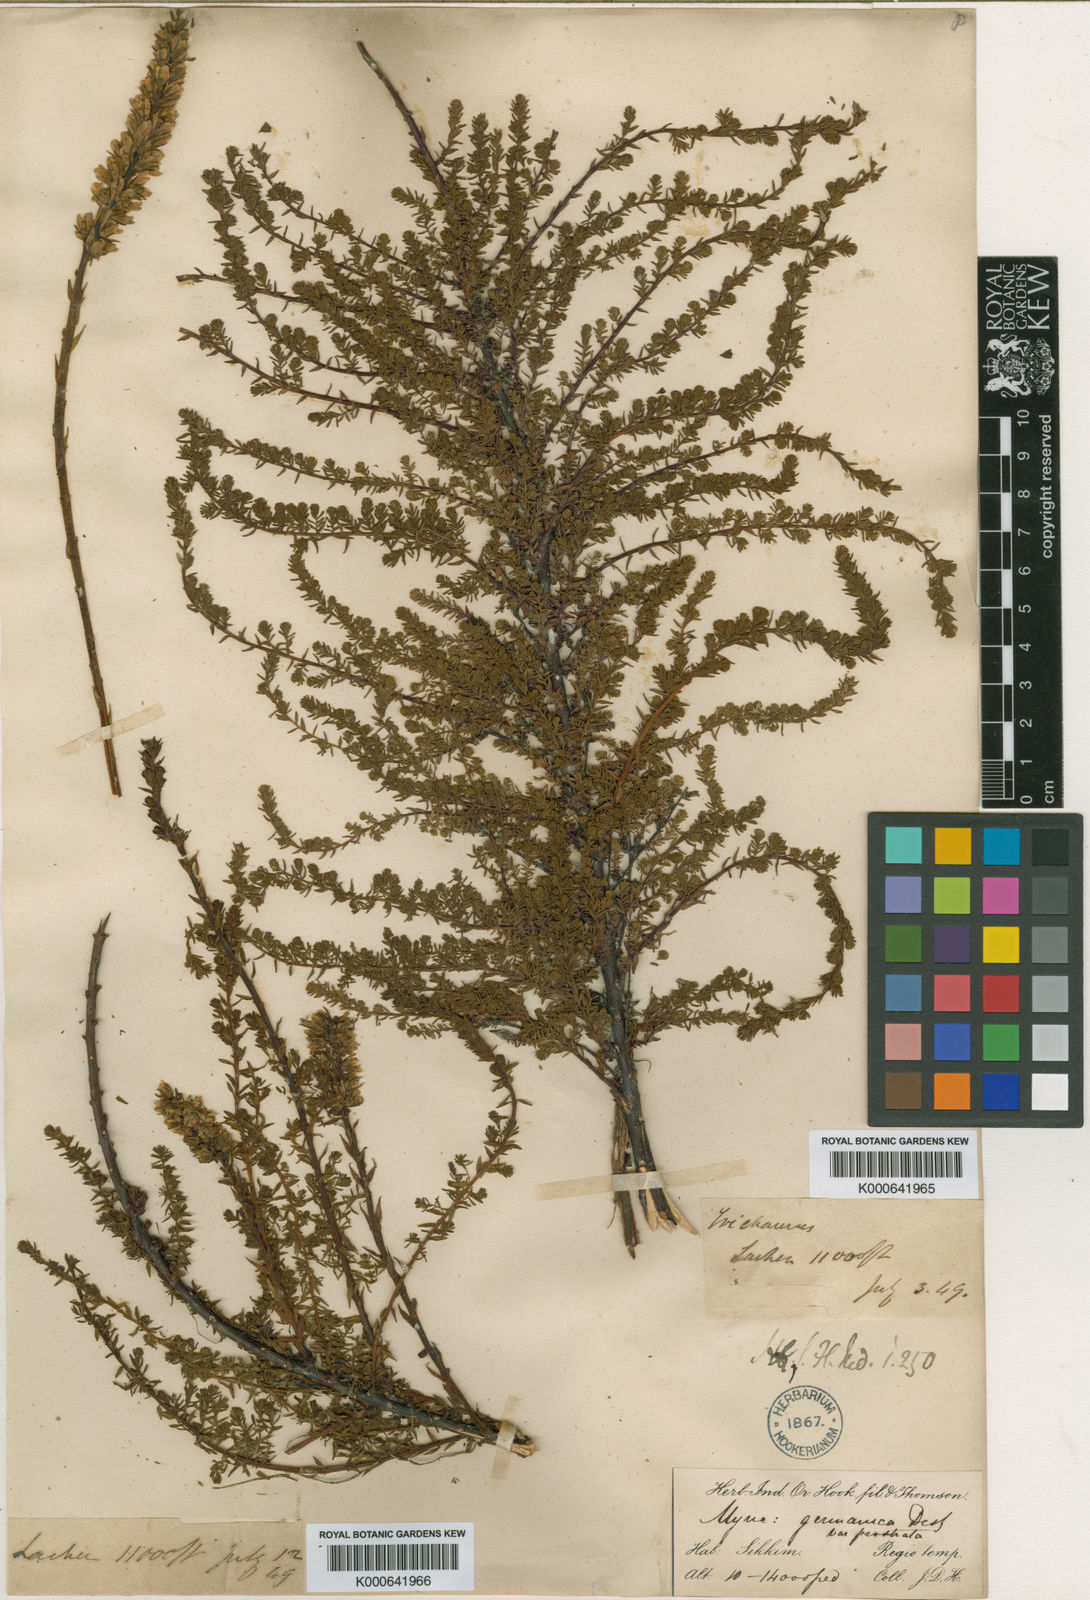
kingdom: Plantae
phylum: Tracheophyta
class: Magnoliopsida
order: Caryophyllales
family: Tamaricaceae
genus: Myricaria
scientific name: Myricaria rosea
